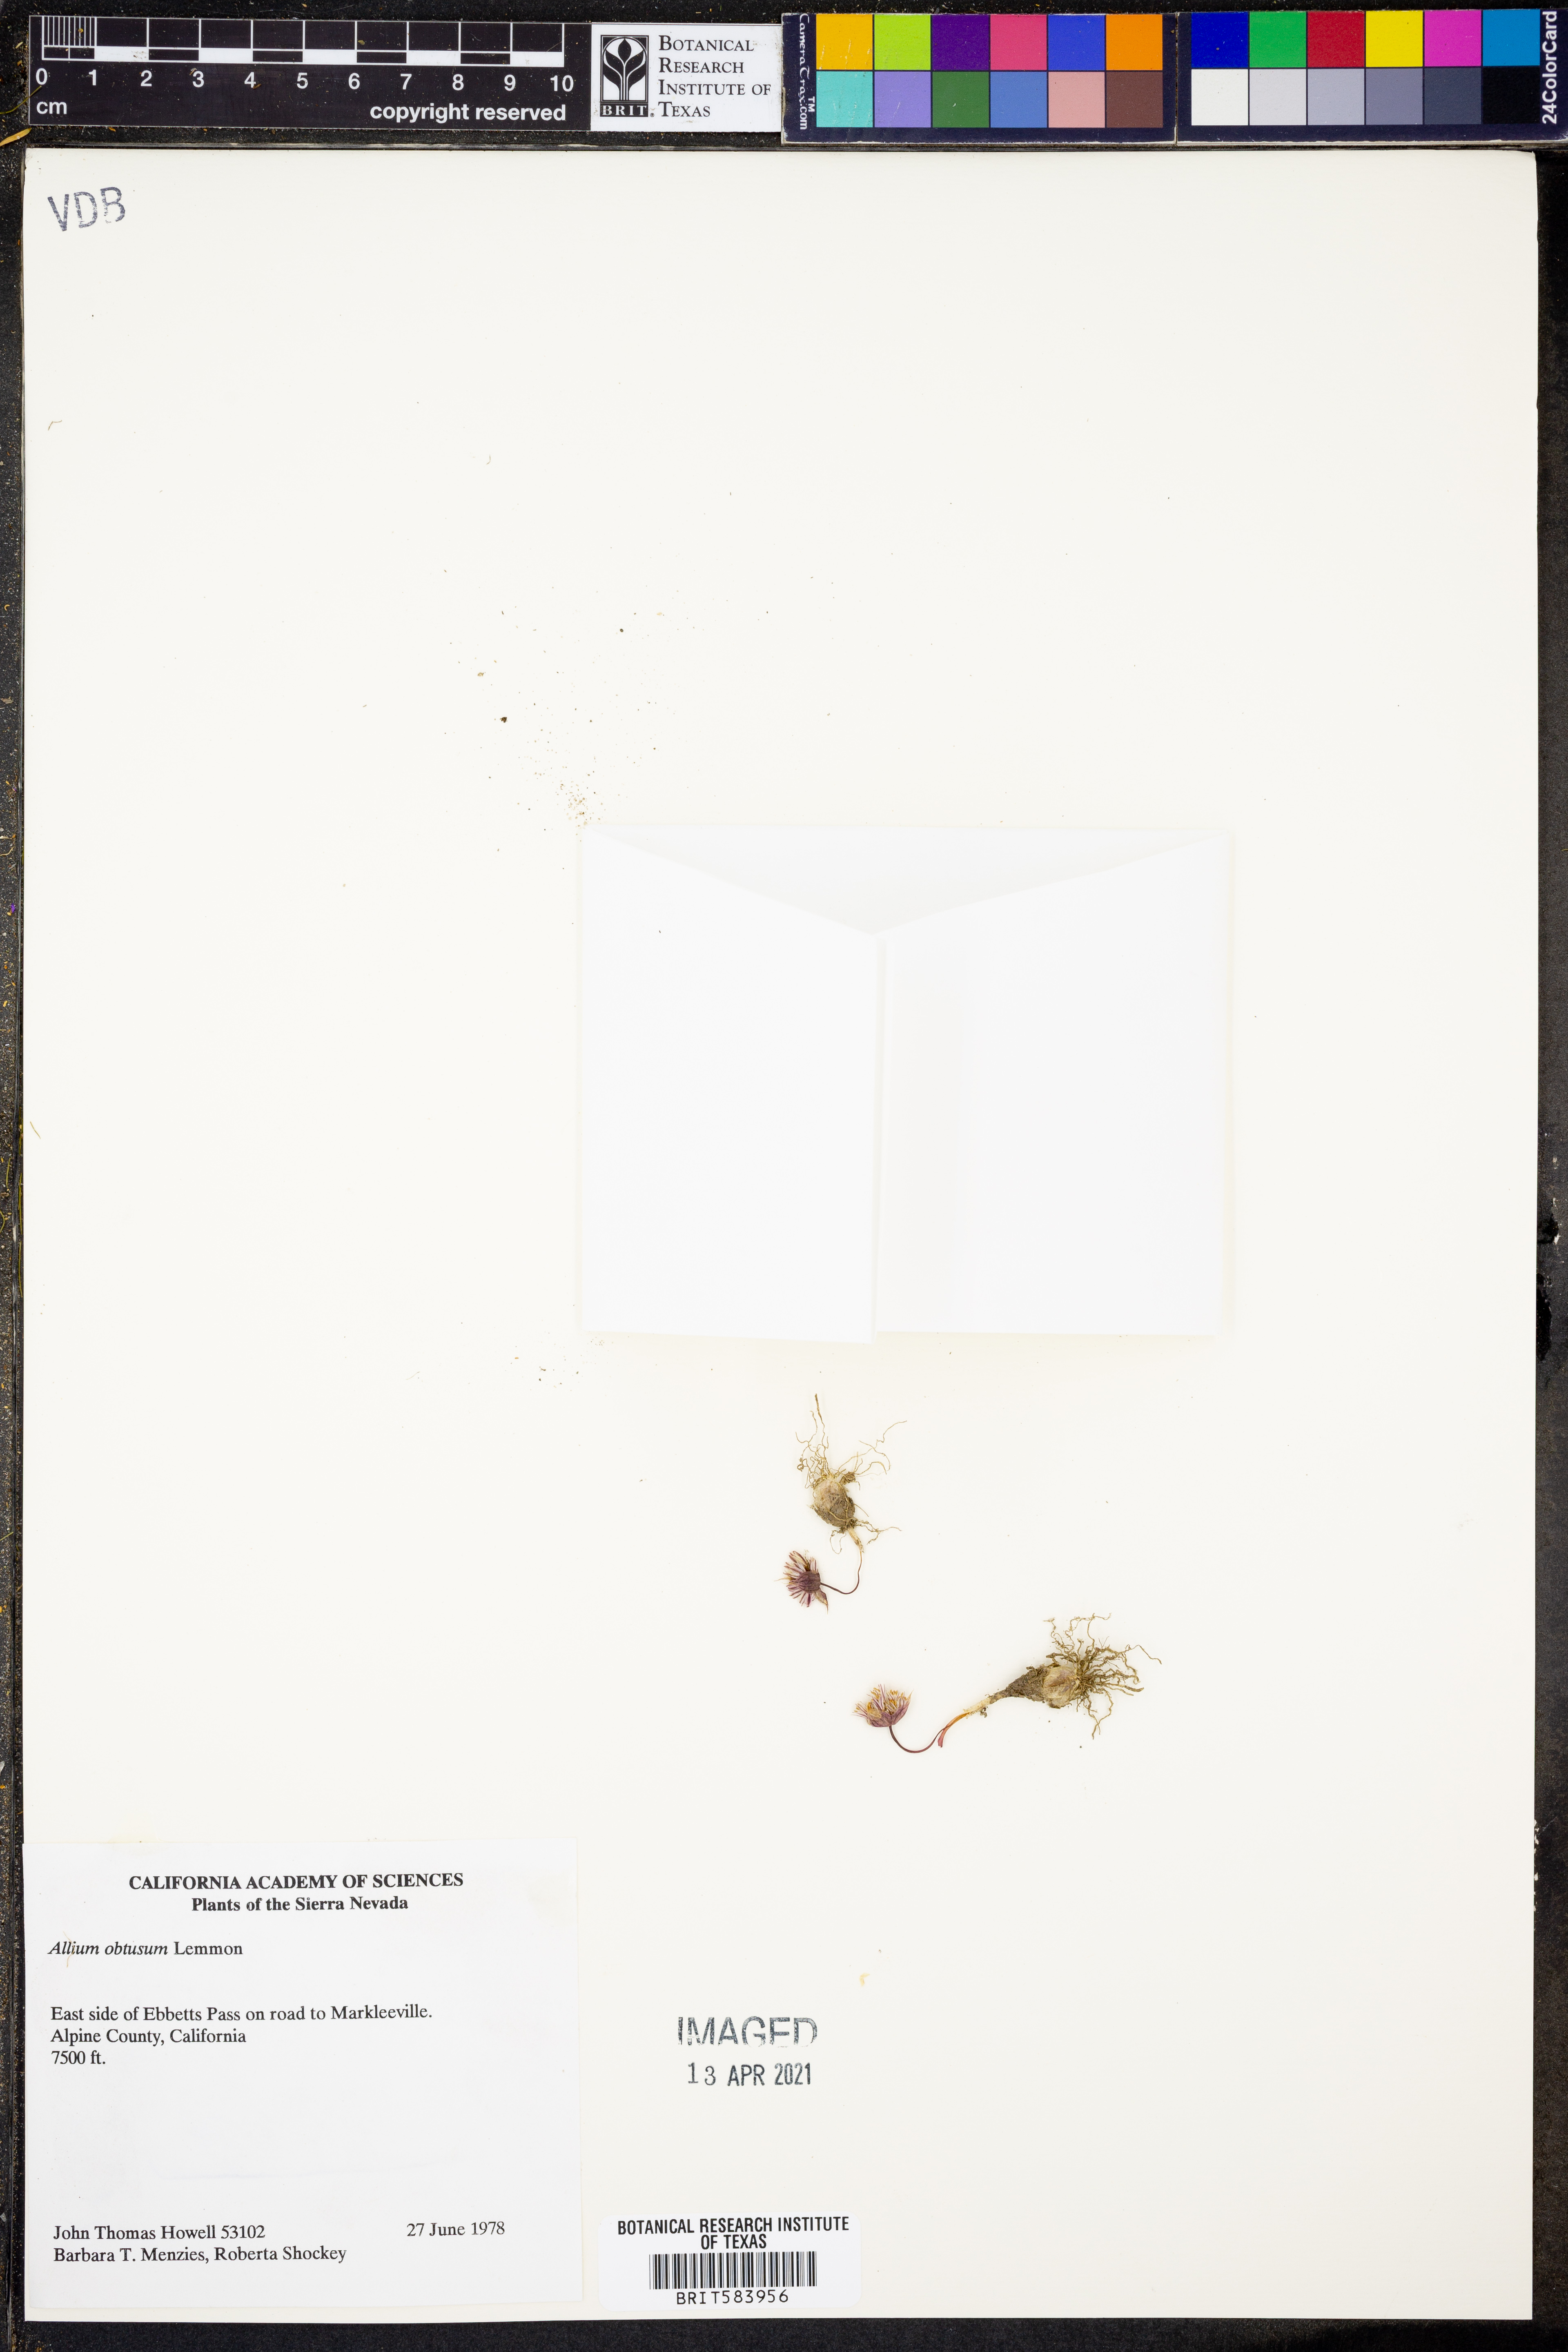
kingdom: Plantae
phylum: Tracheophyta
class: Liliopsida
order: Asparagales
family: Amaryllidaceae
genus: Allium
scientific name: Allium obtusum
